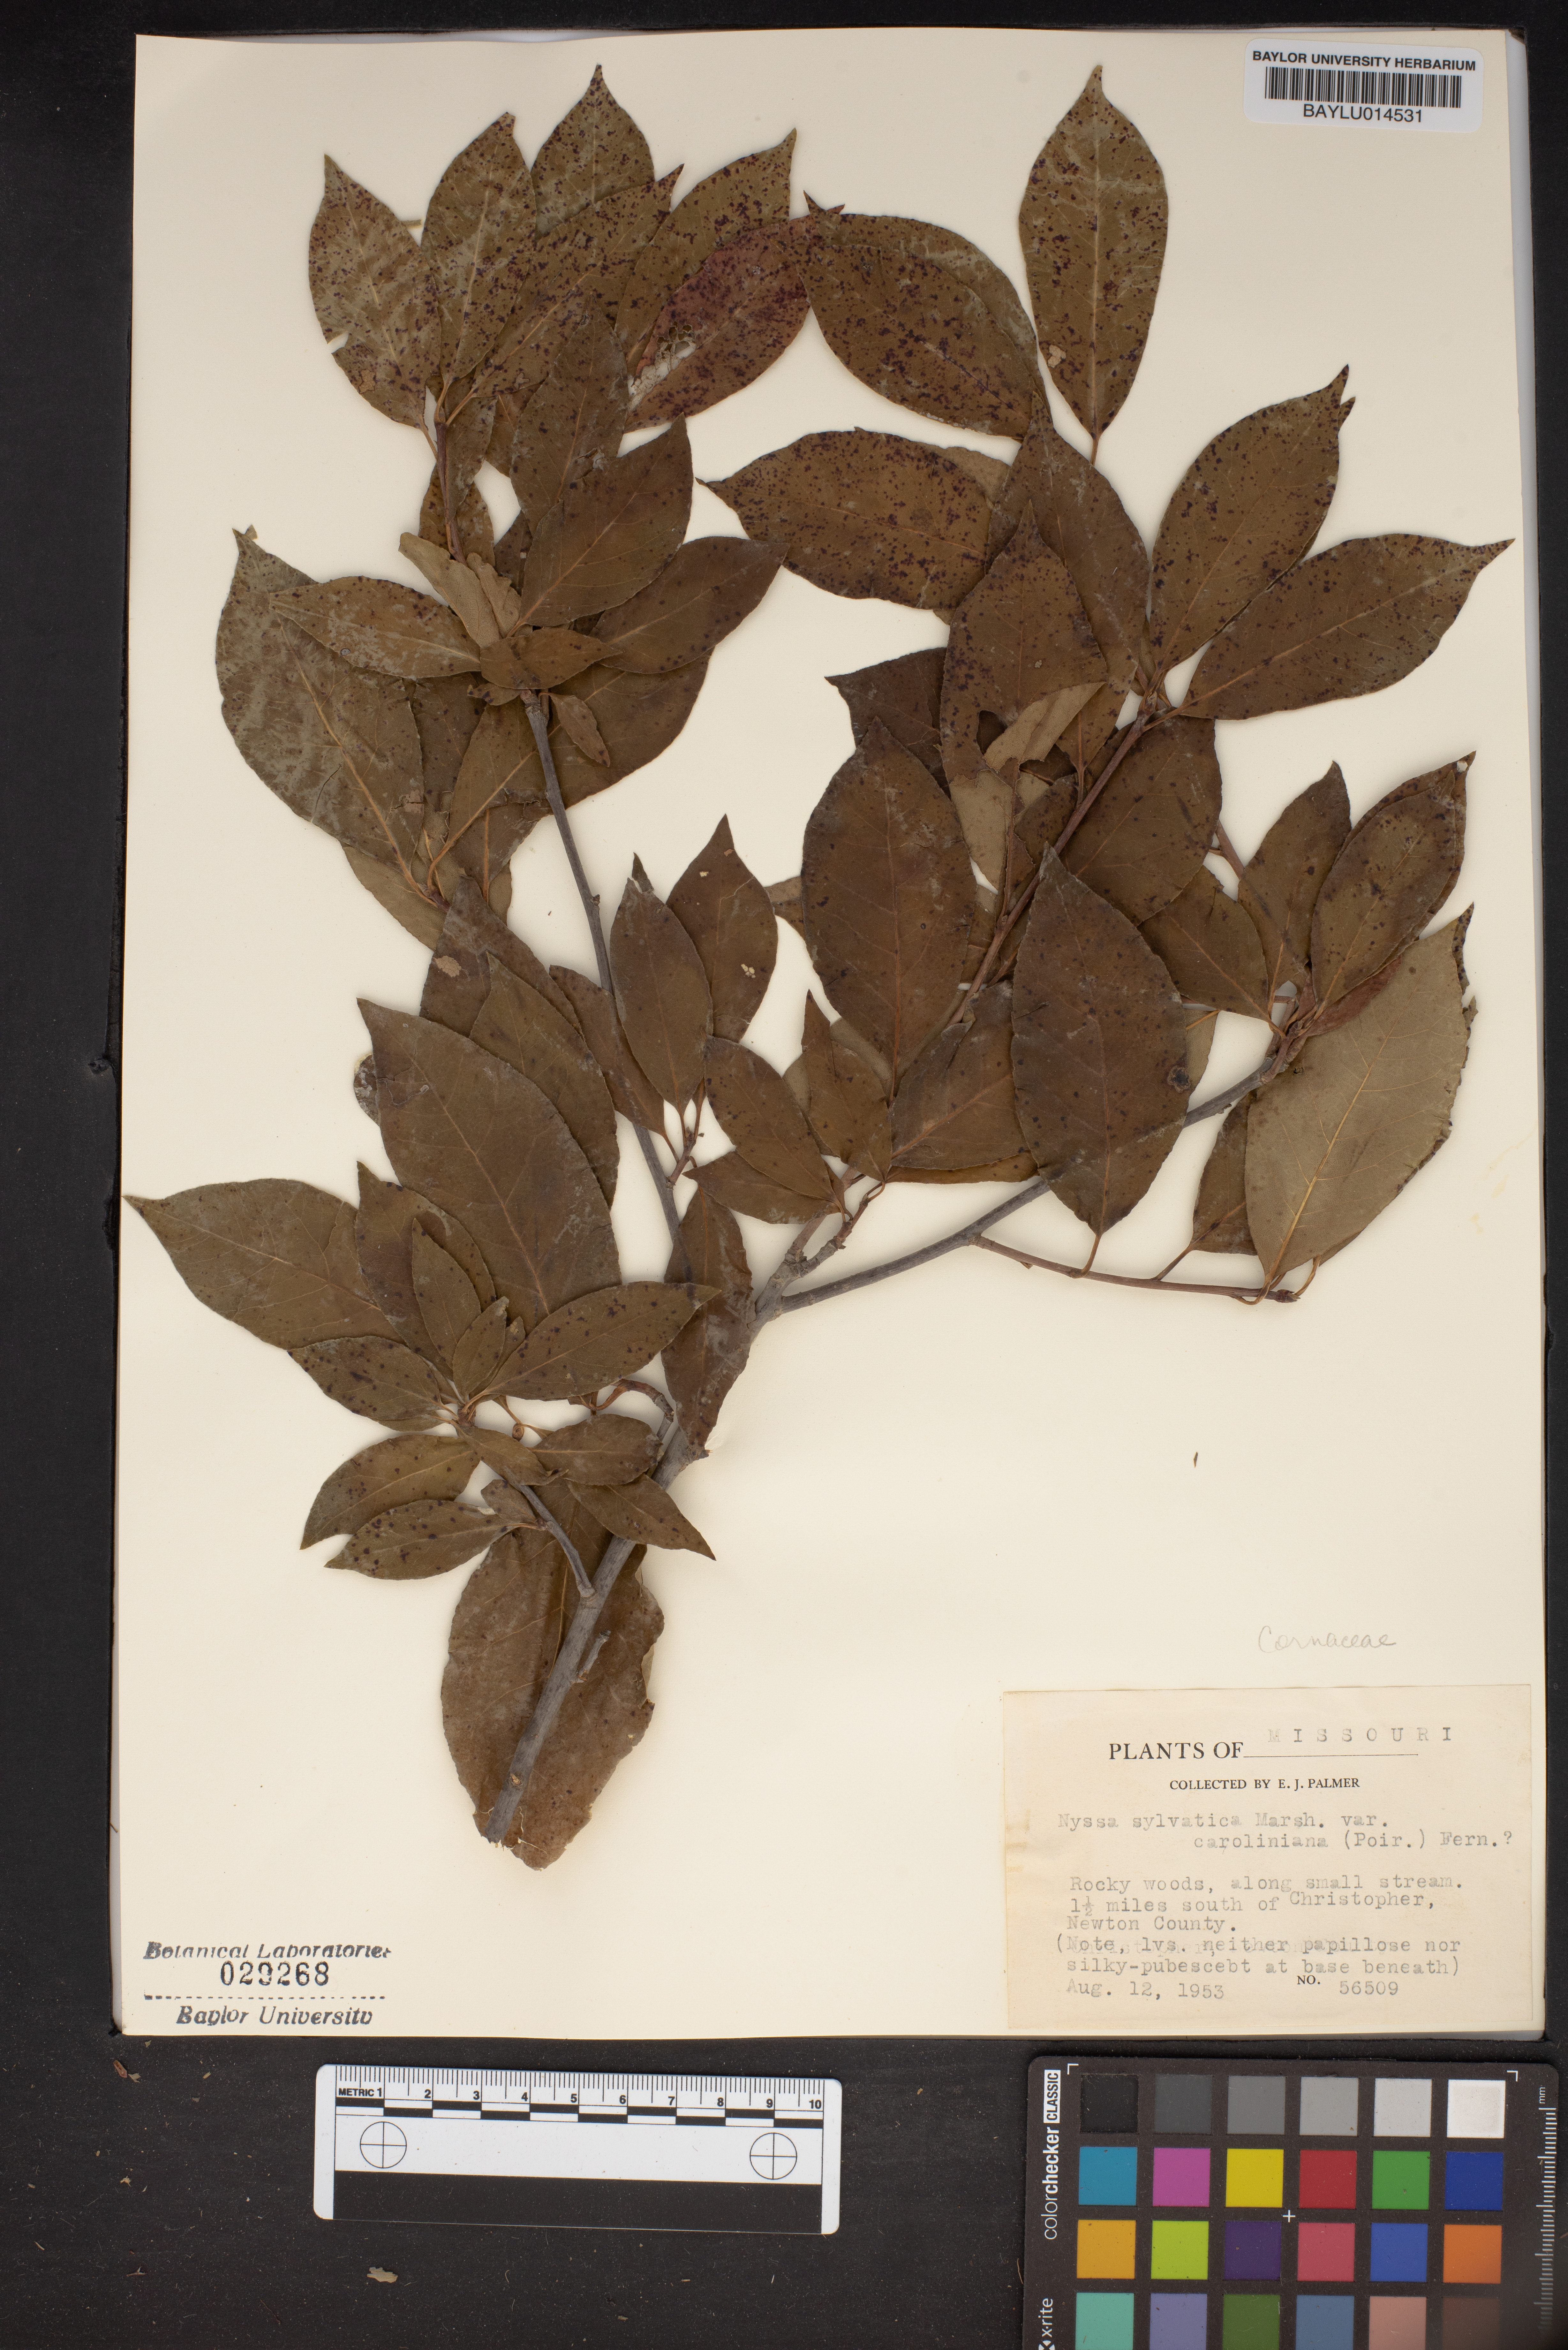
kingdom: Plantae
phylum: Tracheophyta
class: Magnoliopsida
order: Cornales
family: Nyssaceae
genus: Nyssa
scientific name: Nyssa sylvatica
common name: Black tupelo
